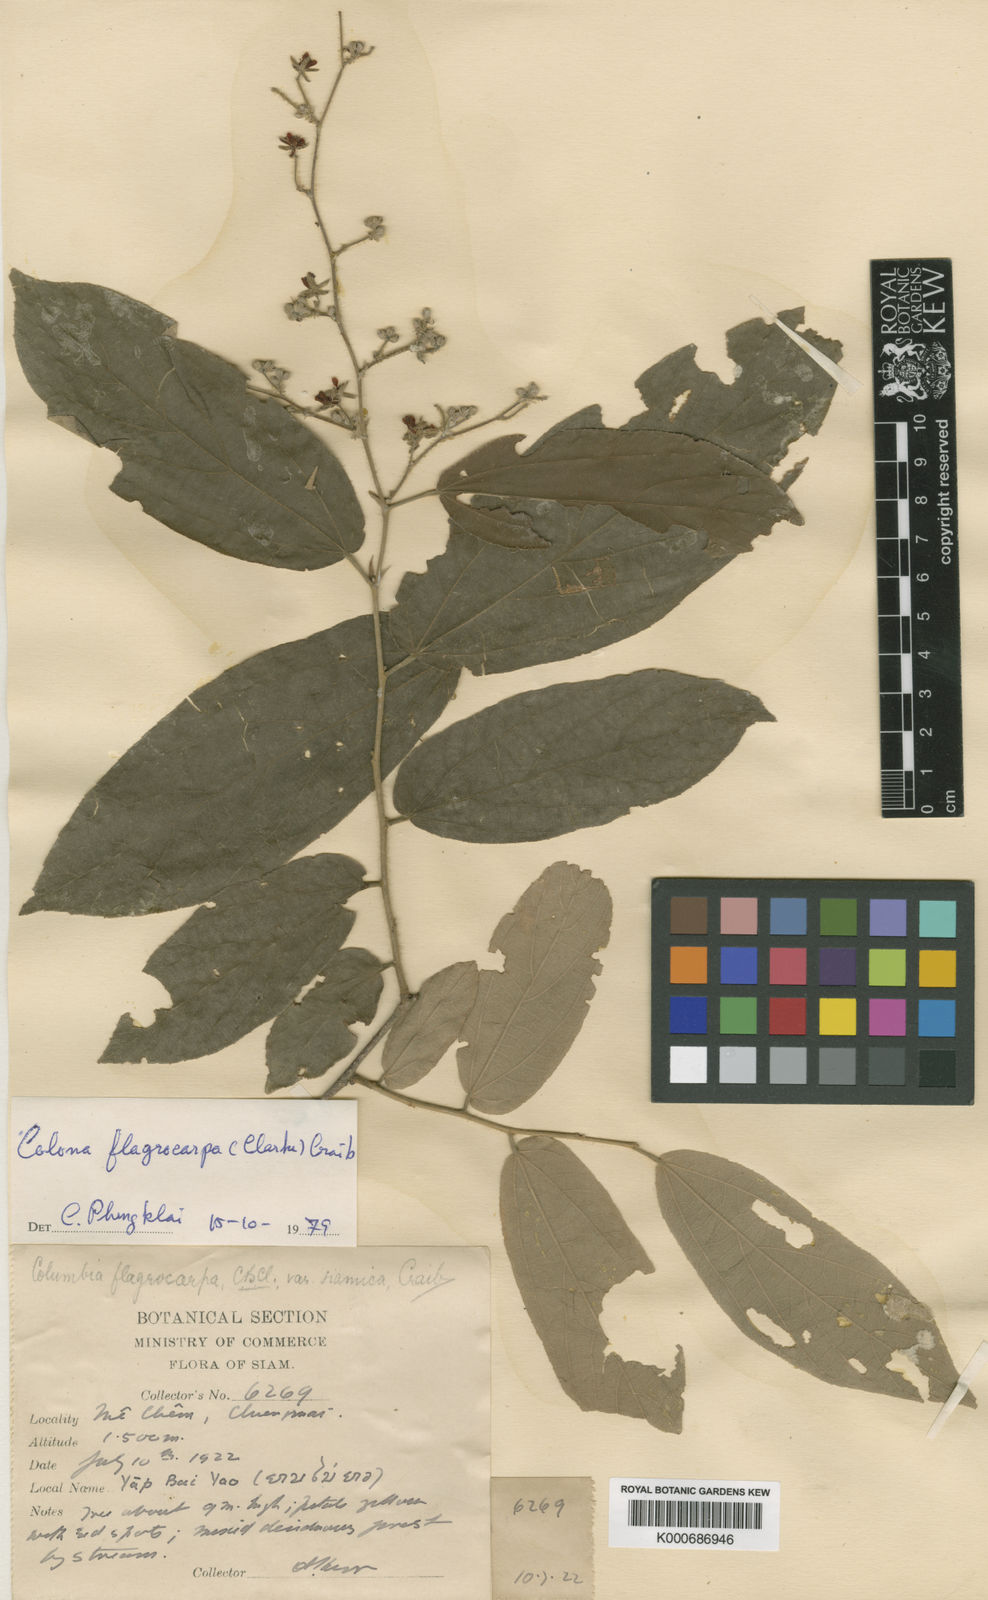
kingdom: Plantae
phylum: Tracheophyta
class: Magnoliopsida
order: Malvales
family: Malvaceae
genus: Colona
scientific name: Colona flagrocarpa
